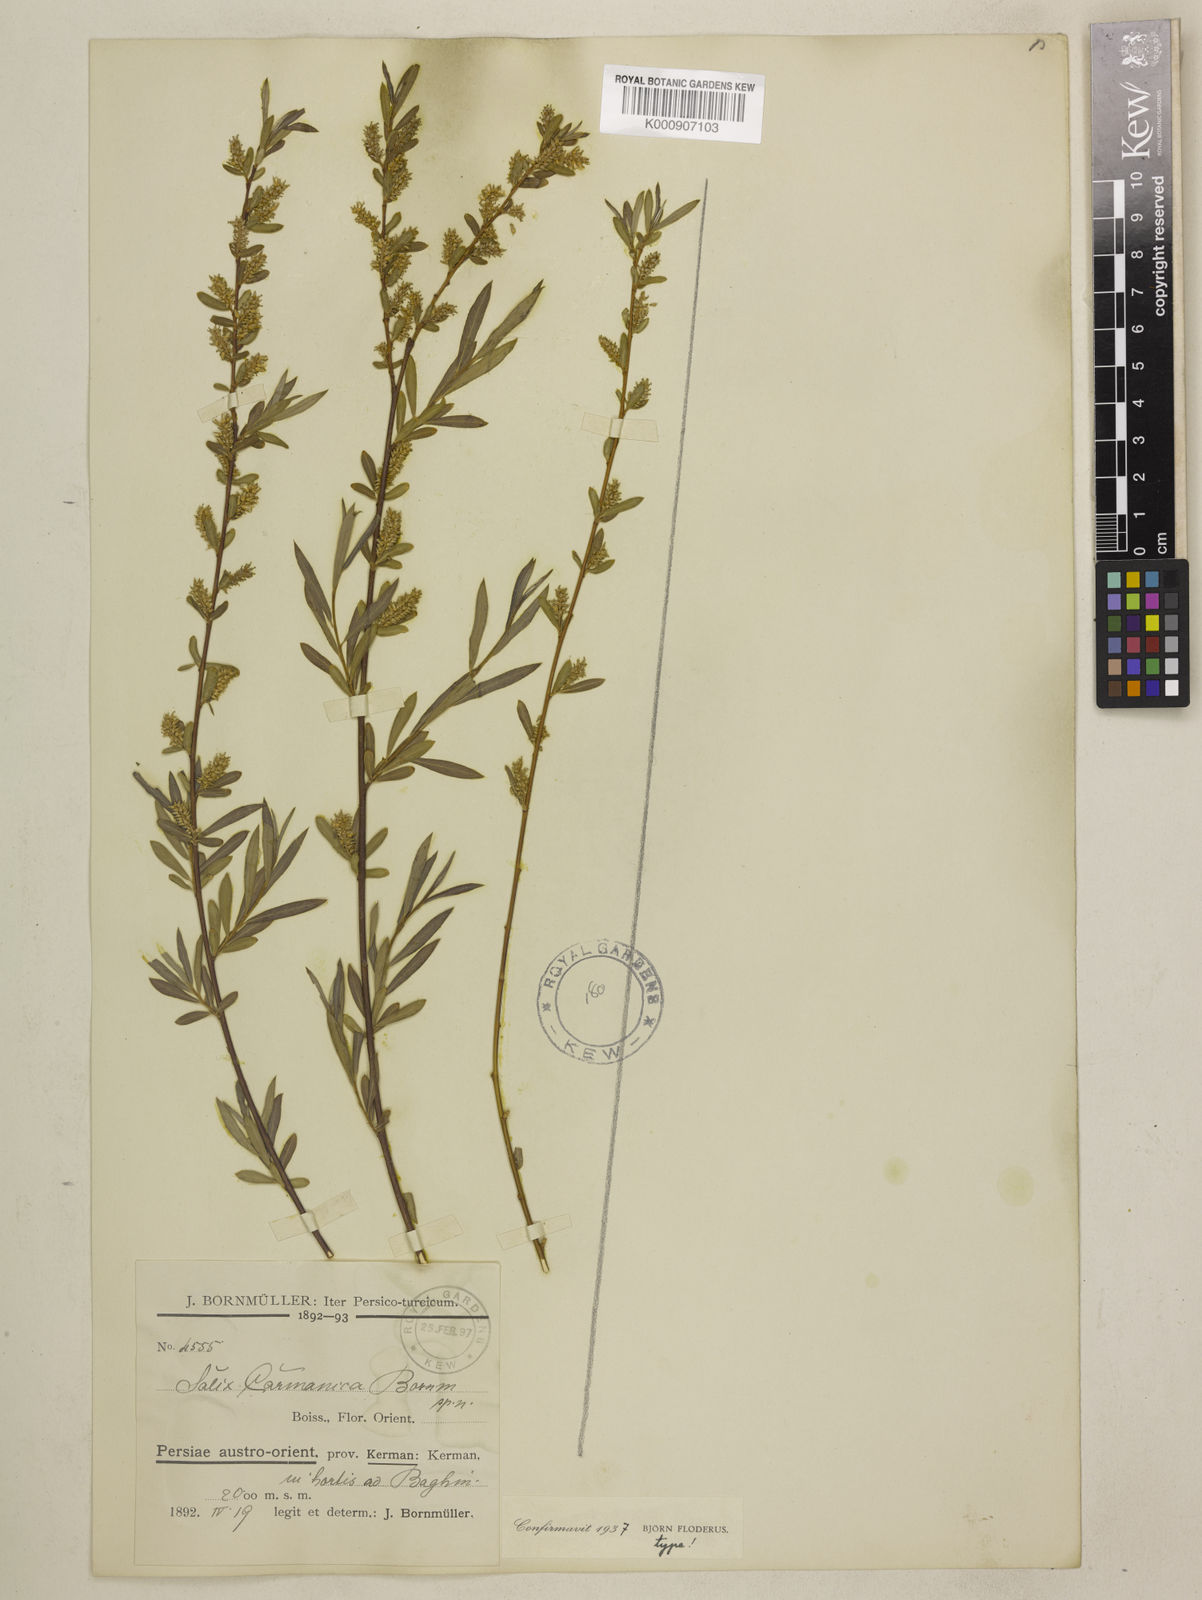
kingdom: Plantae
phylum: Tracheophyta
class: Magnoliopsida
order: Malpighiales
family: Salicaceae
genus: Salix
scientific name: Salix
